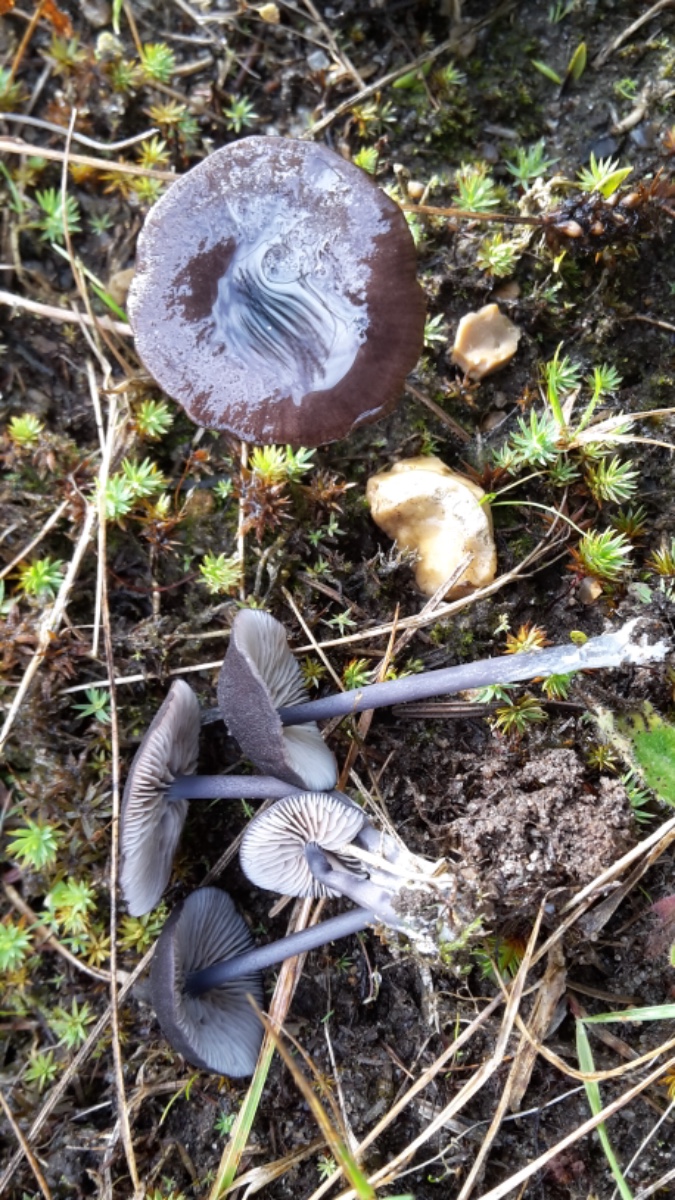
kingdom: Fungi
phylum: Basidiomycota
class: Agaricomycetes
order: Agaricales
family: Entolomataceae
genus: Entoloma
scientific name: Entoloma chalybeum
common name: blåbladet rødblad
